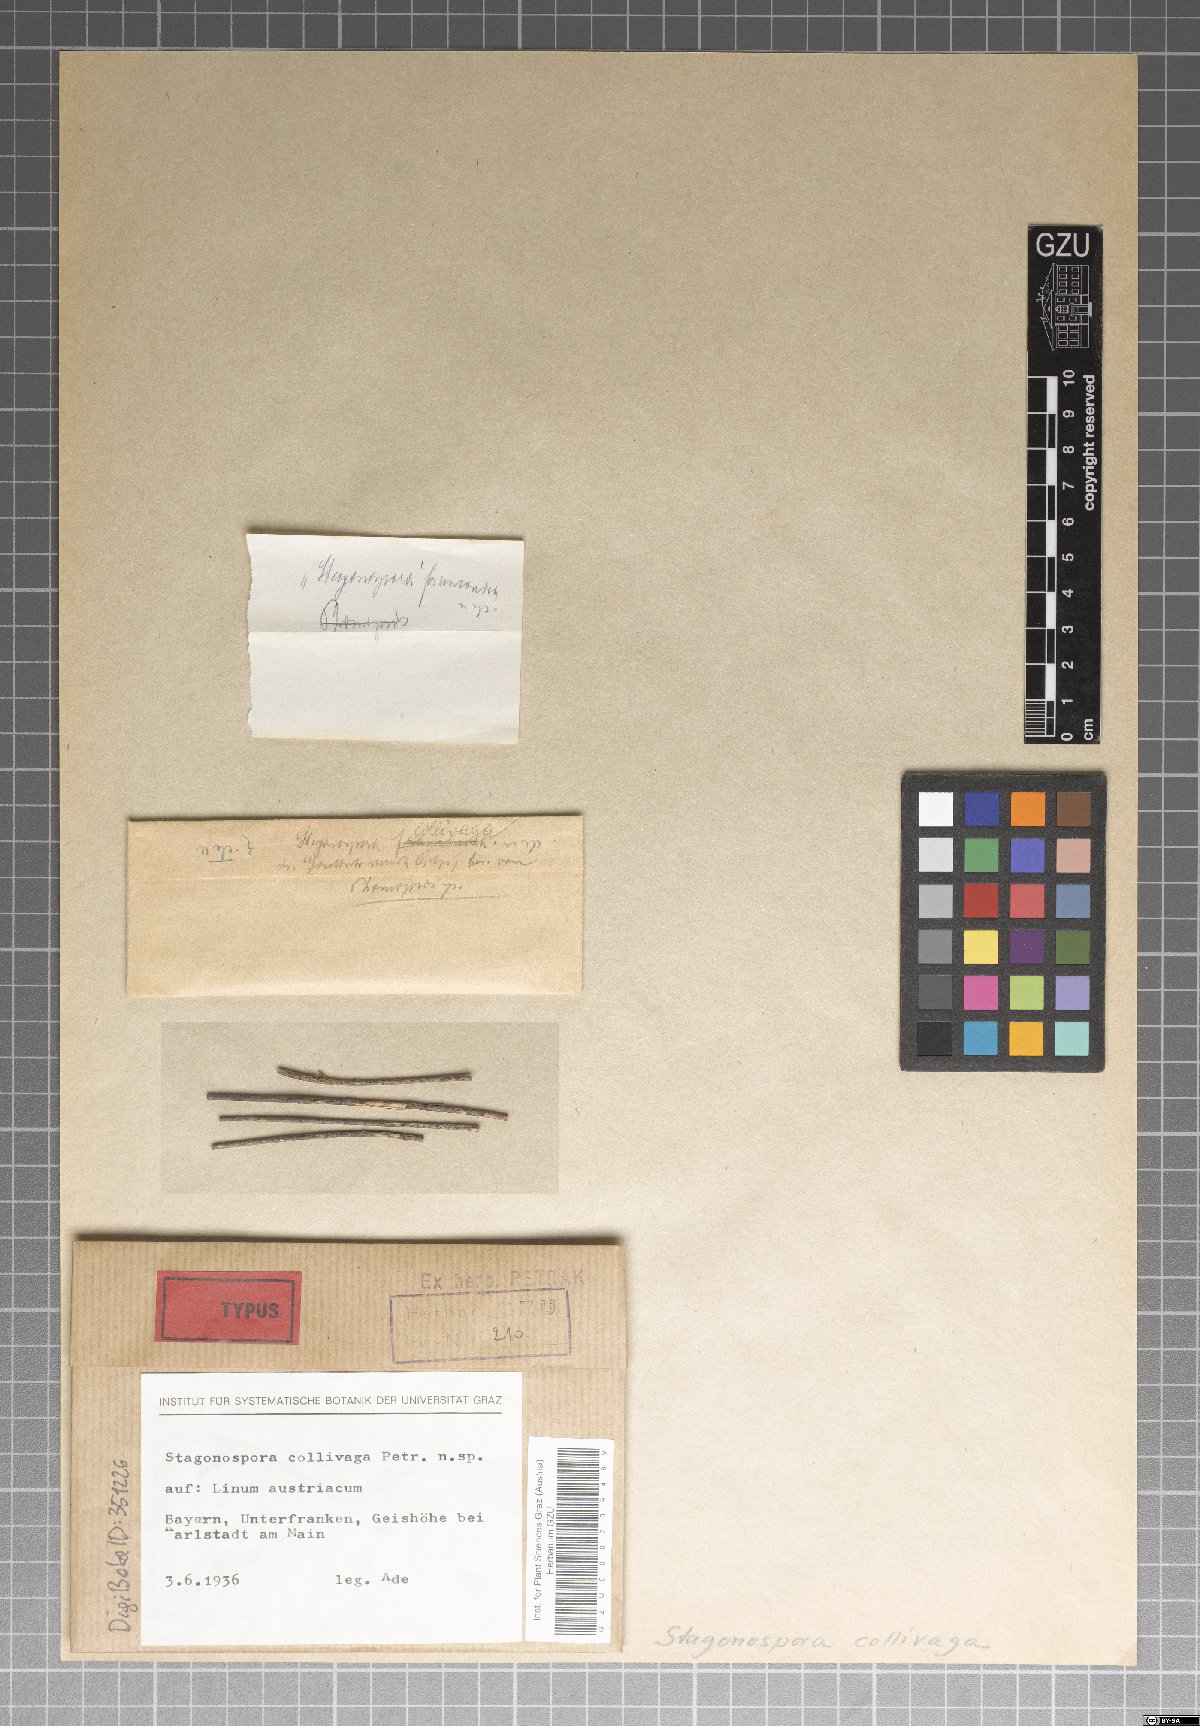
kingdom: Fungi
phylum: Ascomycota
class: Dothideomycetes
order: Pleosporales
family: Phaeosphaeriaceae
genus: Stagonospora
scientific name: Stagonospora collivaga
